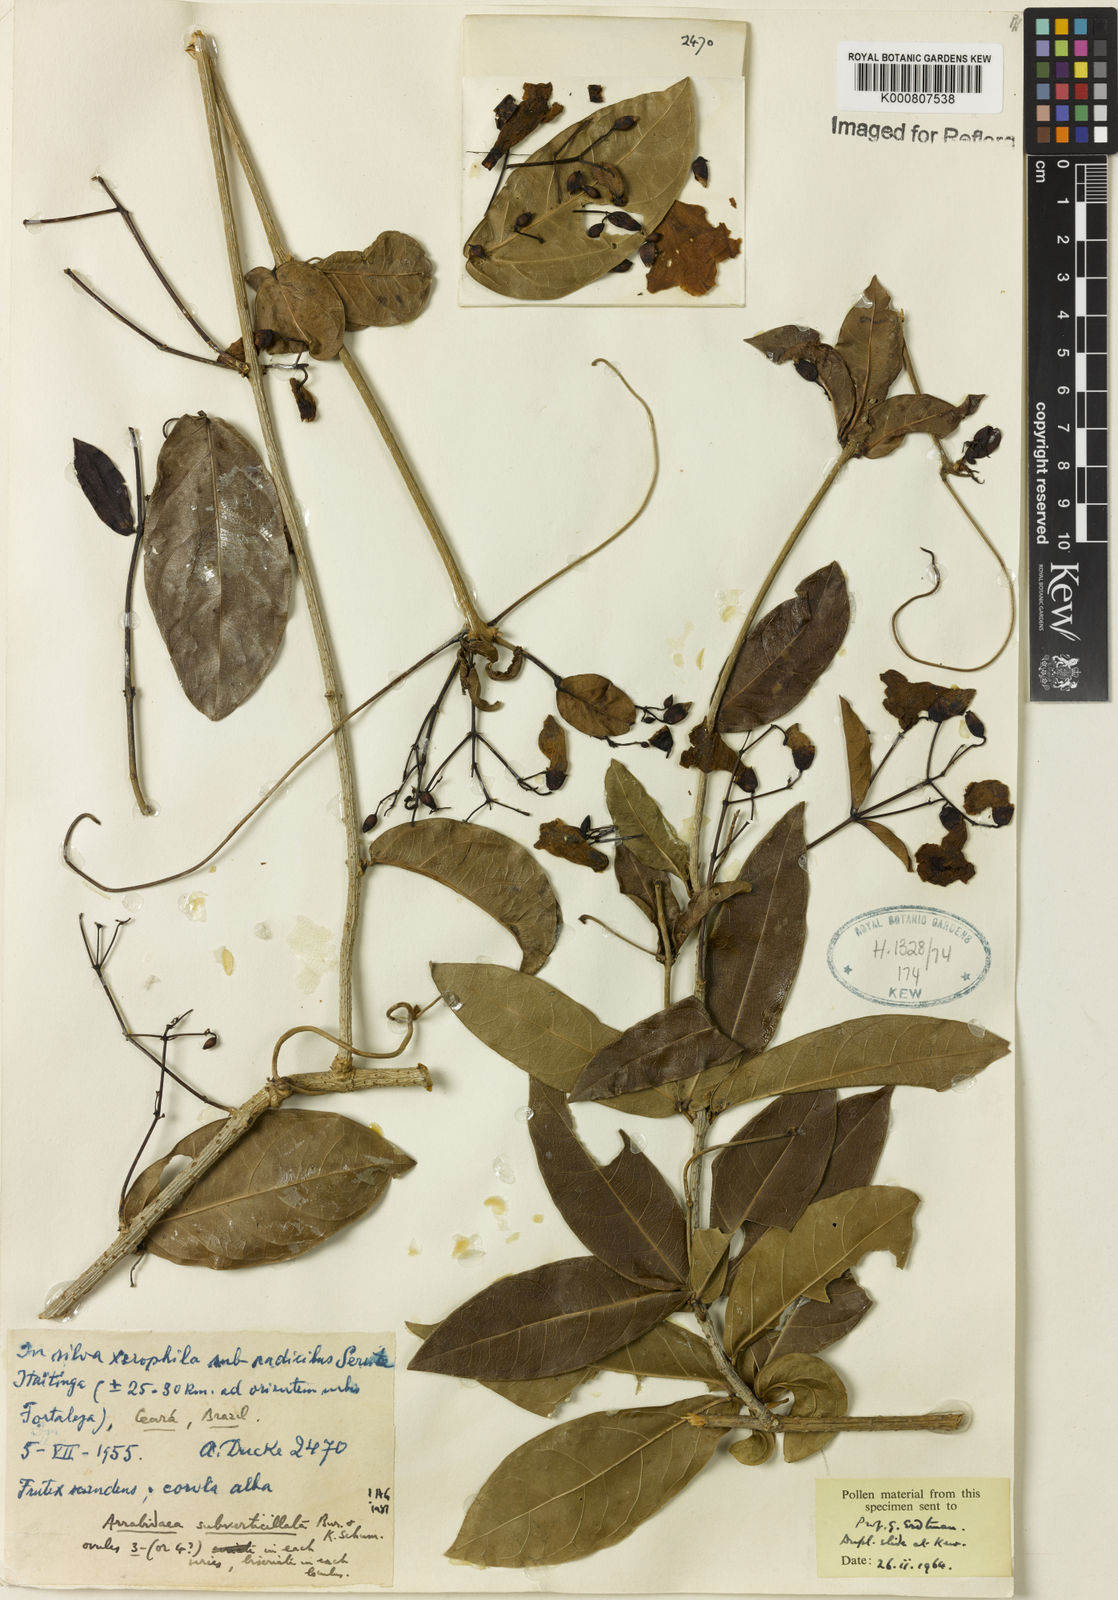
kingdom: Plantae
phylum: Tracheophyta
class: Magnoliopsida
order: Lamiales
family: Bignoniaceae
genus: Fridericia
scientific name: Fridericia subverticillata
